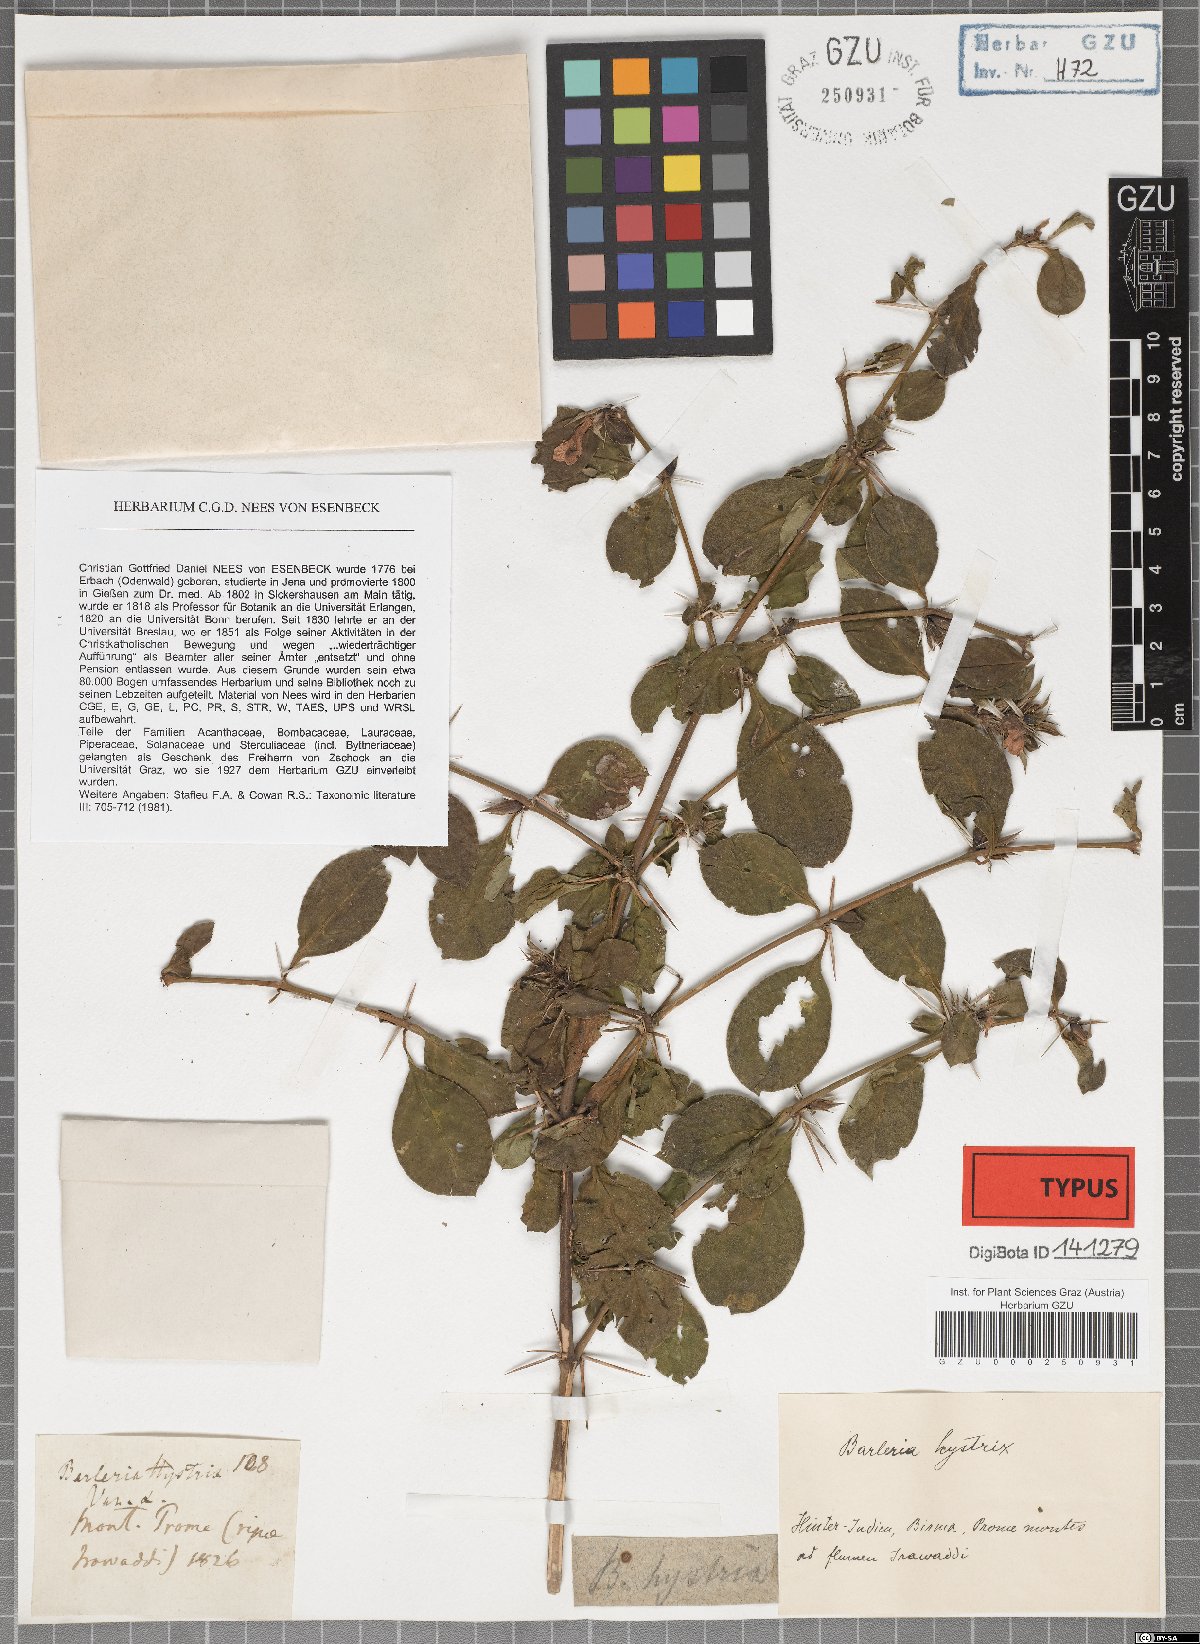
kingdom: Plantae
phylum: Tracheophyta
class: Magnoliopsida
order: Lamiales
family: Acanthaceae
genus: Barleria
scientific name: Barleria prionitis
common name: Barleria
